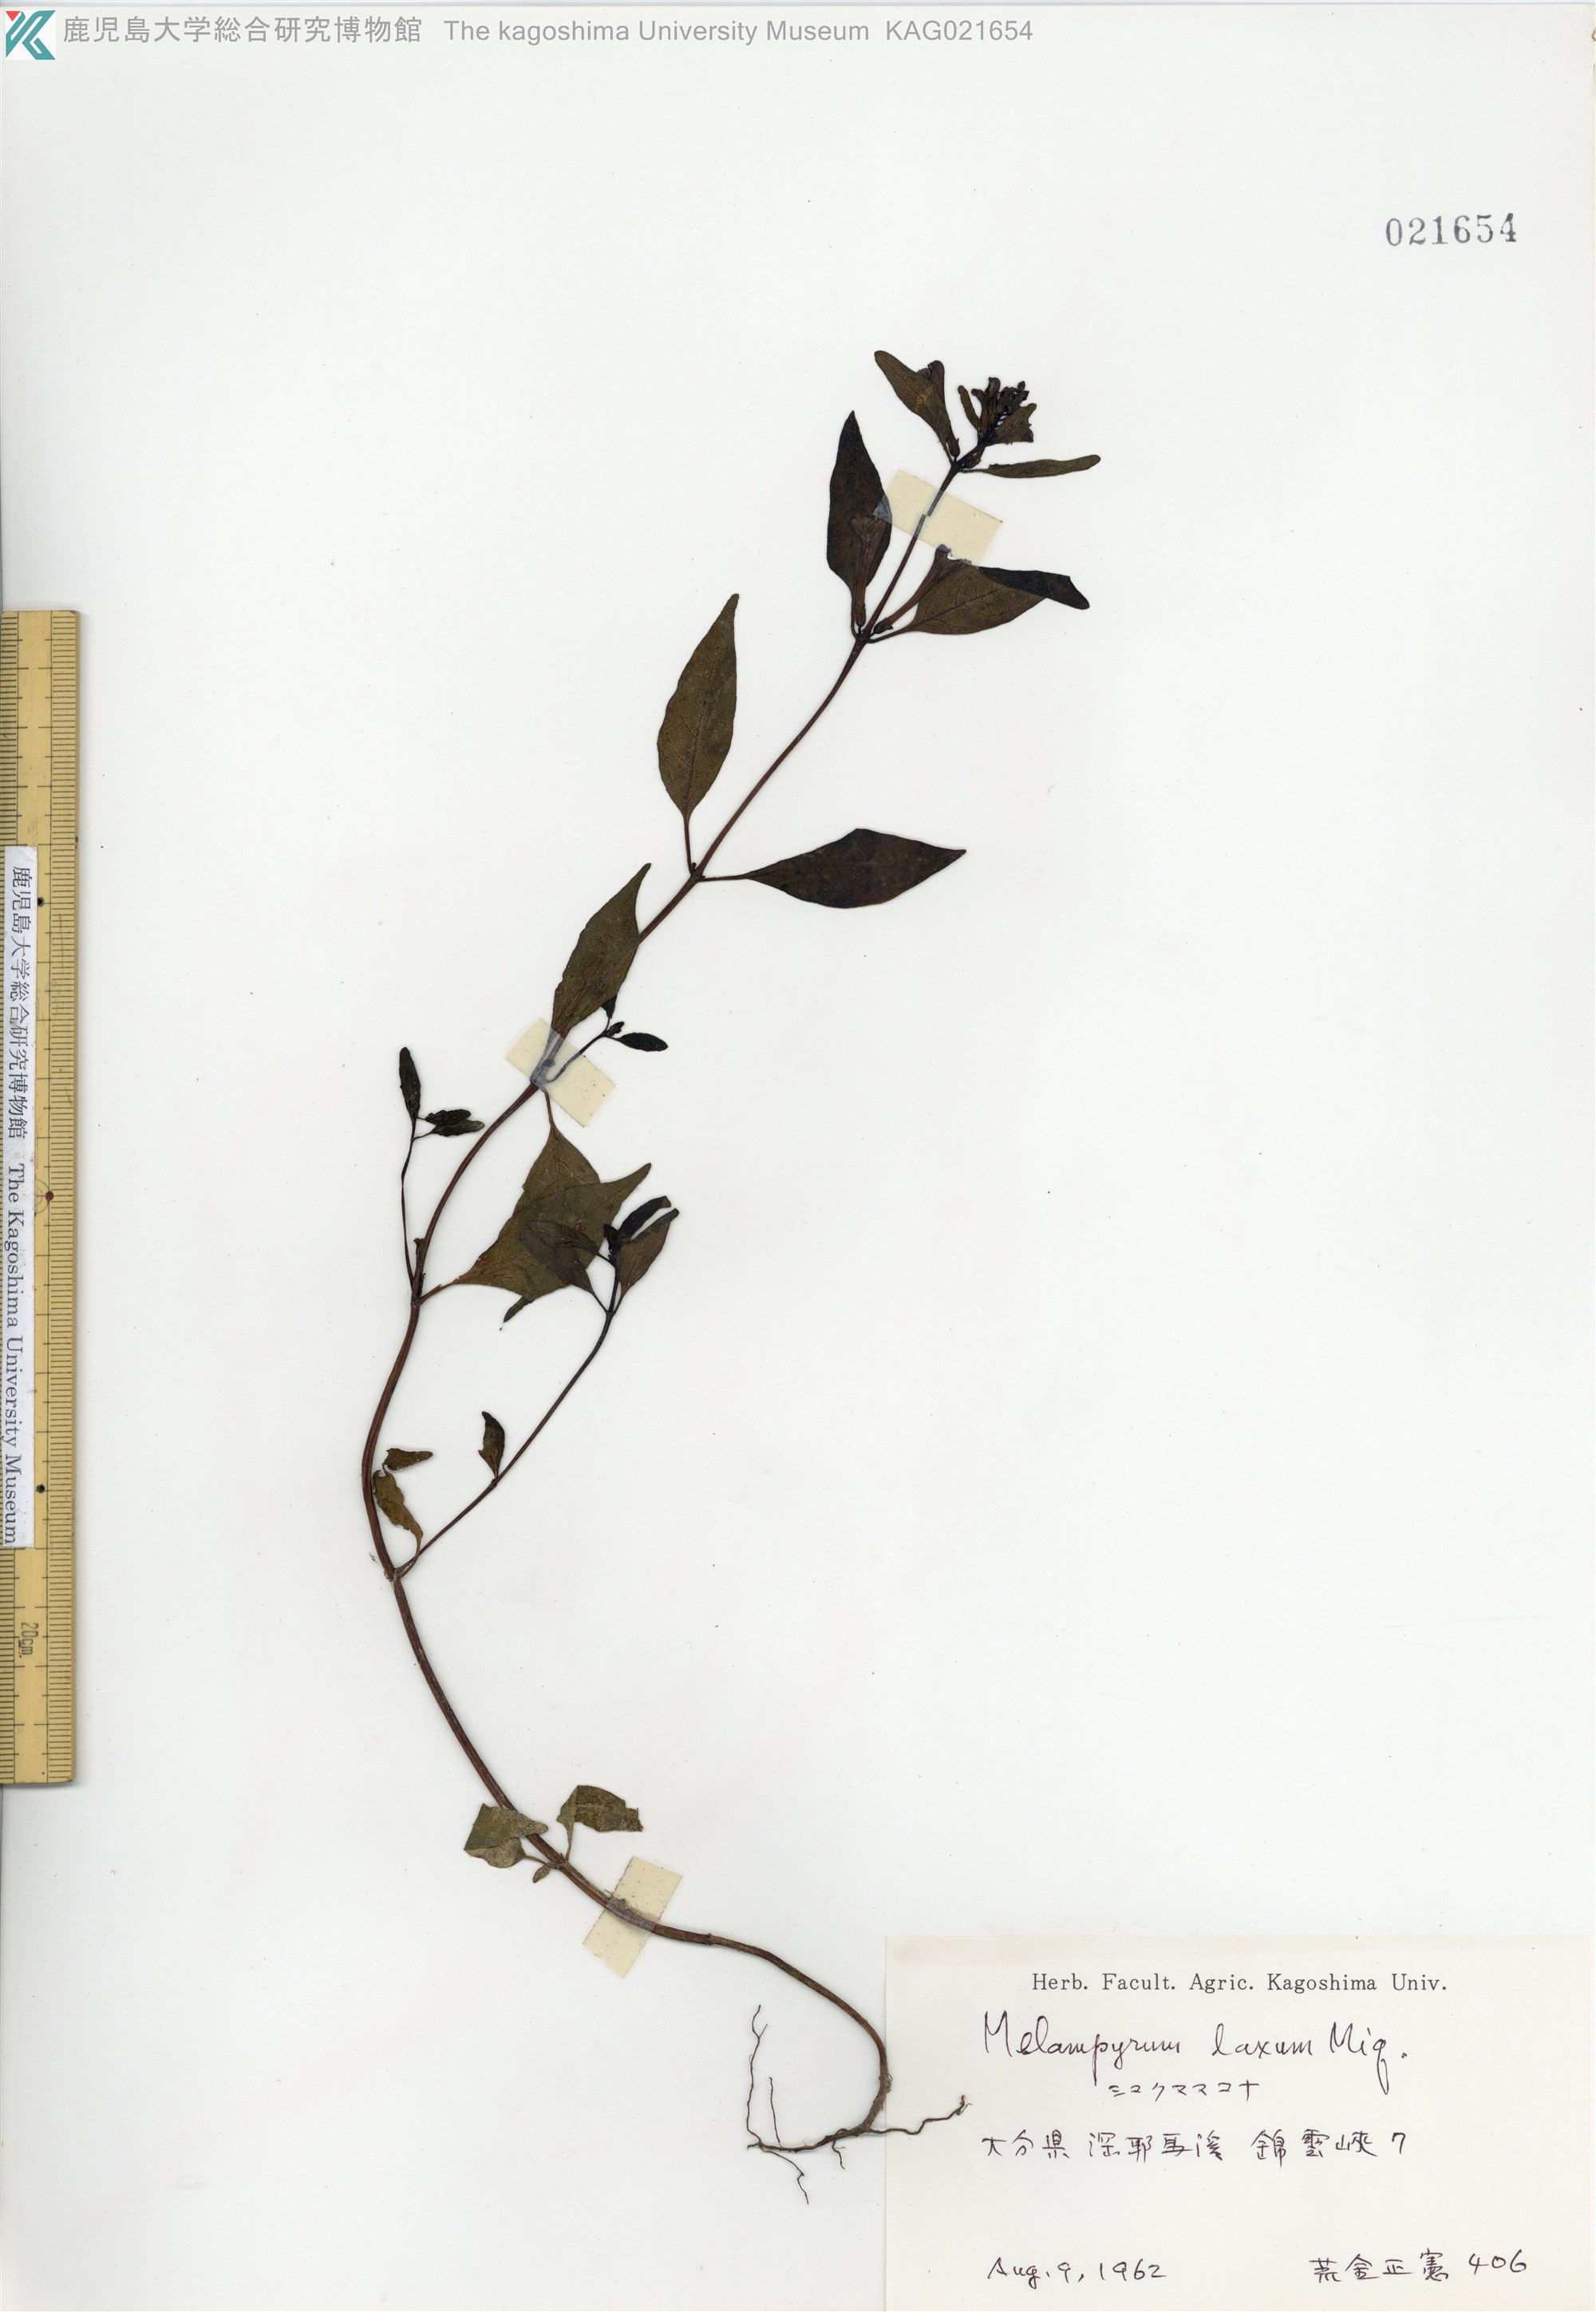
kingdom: Plantae
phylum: Tracheophyta
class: Magnoliopsida
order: Lamiales
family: Orobanchaceae
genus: Melampyrum
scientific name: Melampyrum laxum
